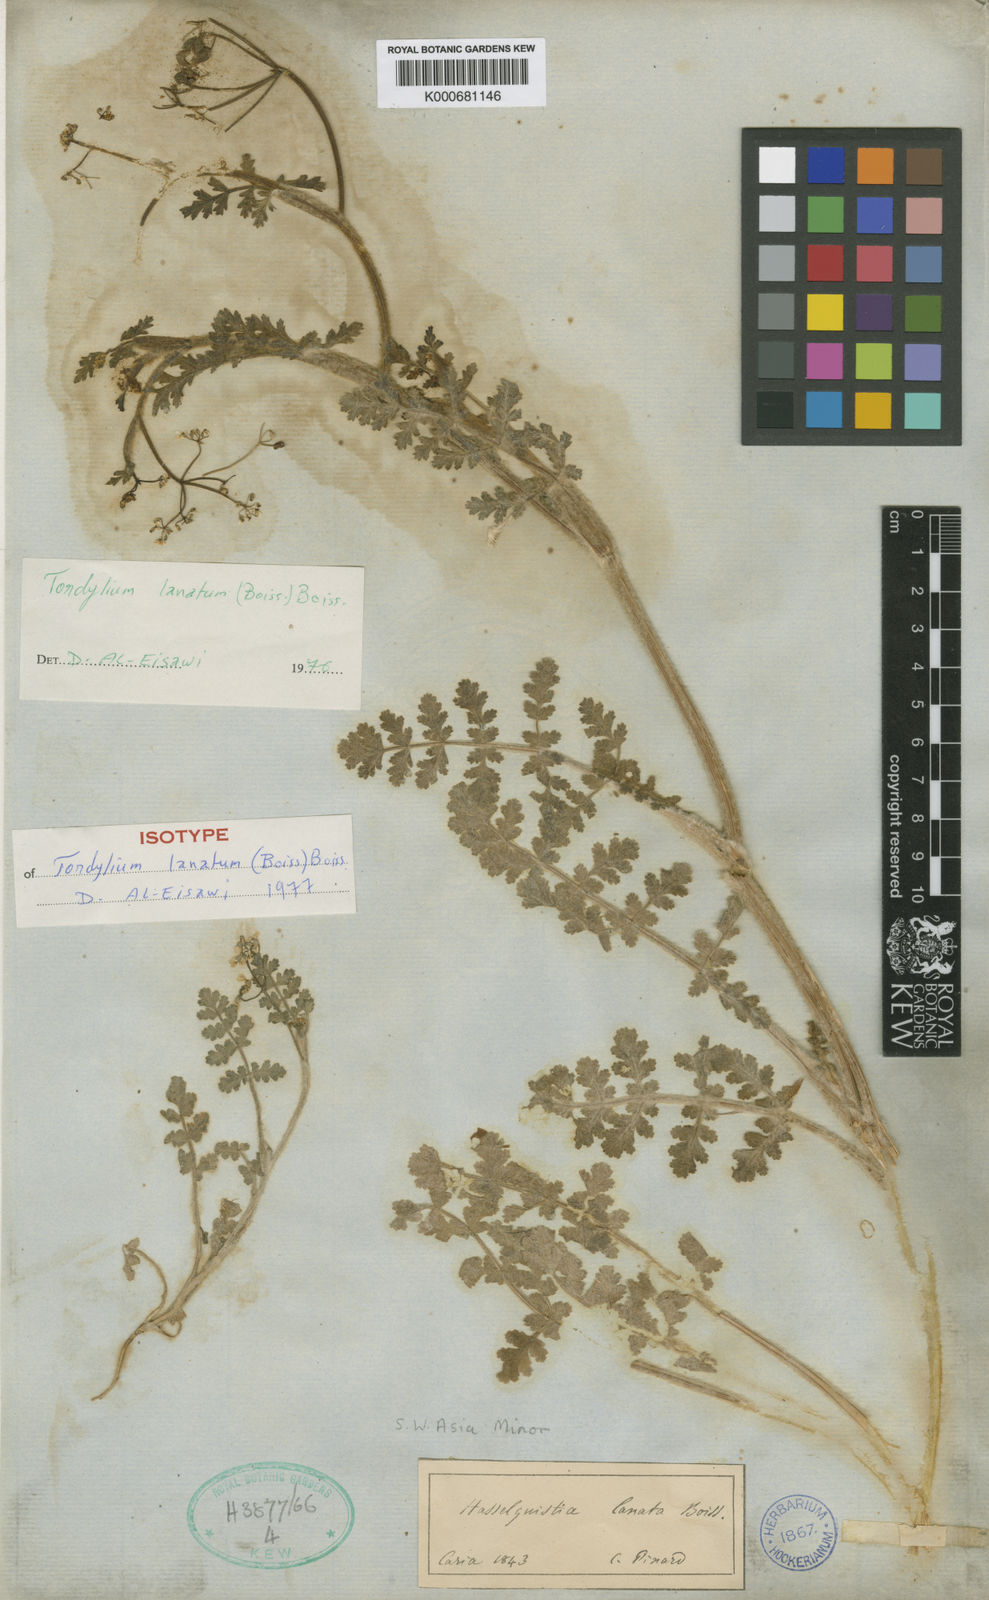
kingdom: Plantae
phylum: Tracheophyta
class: Magnoliopsida
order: Apiales
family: Apiaceae
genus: Tordylium
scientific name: Tordylium lanatum
